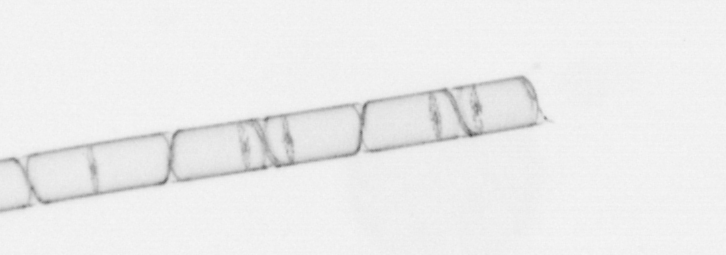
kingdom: Chromista
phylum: Ochrophyta
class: Bacillariophyceae
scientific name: Bacillariophyceae
